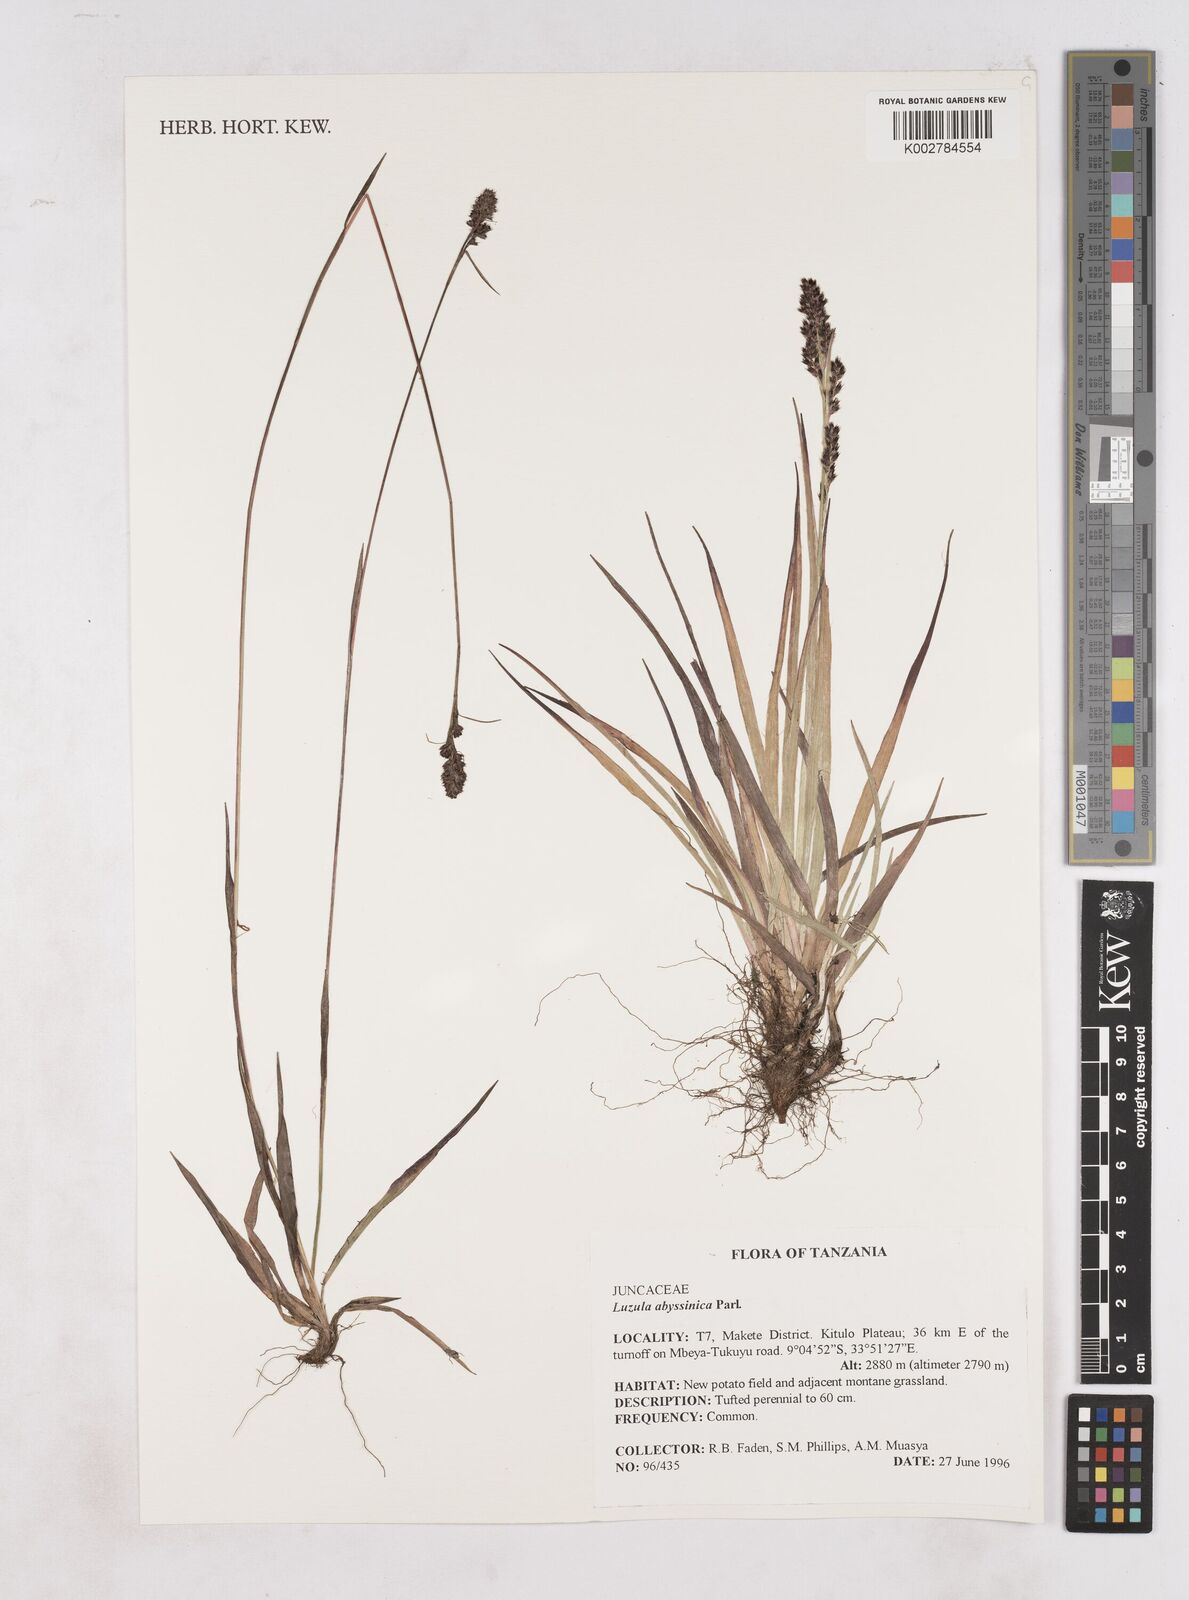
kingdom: Plantae
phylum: Tracheophyta
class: Liliopsida
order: Poales
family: Juncaceae
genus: Luzula
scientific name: Luzula abyssinica
